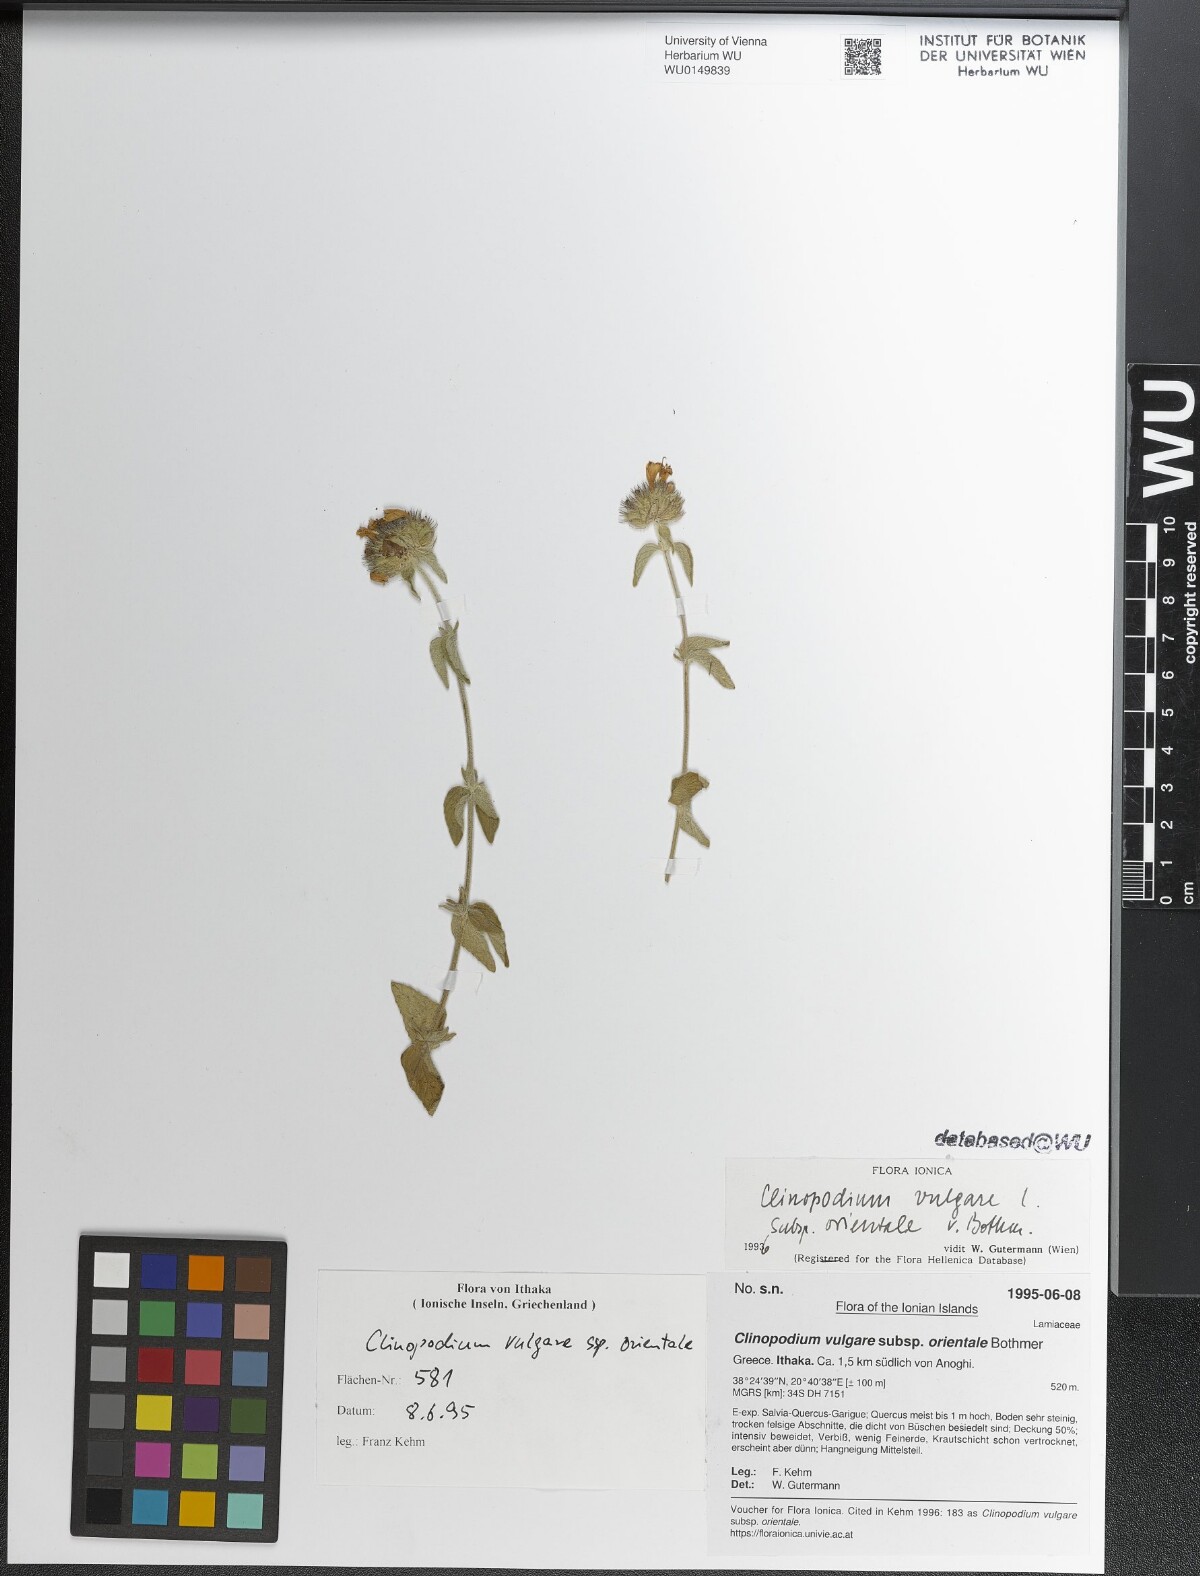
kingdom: Plantae
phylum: Tracheophyta
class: Magnoliopsida
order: Lamiales
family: Lamiaceae
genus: Clinopodium
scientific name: Clinopodium vulgare
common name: Wild basil
